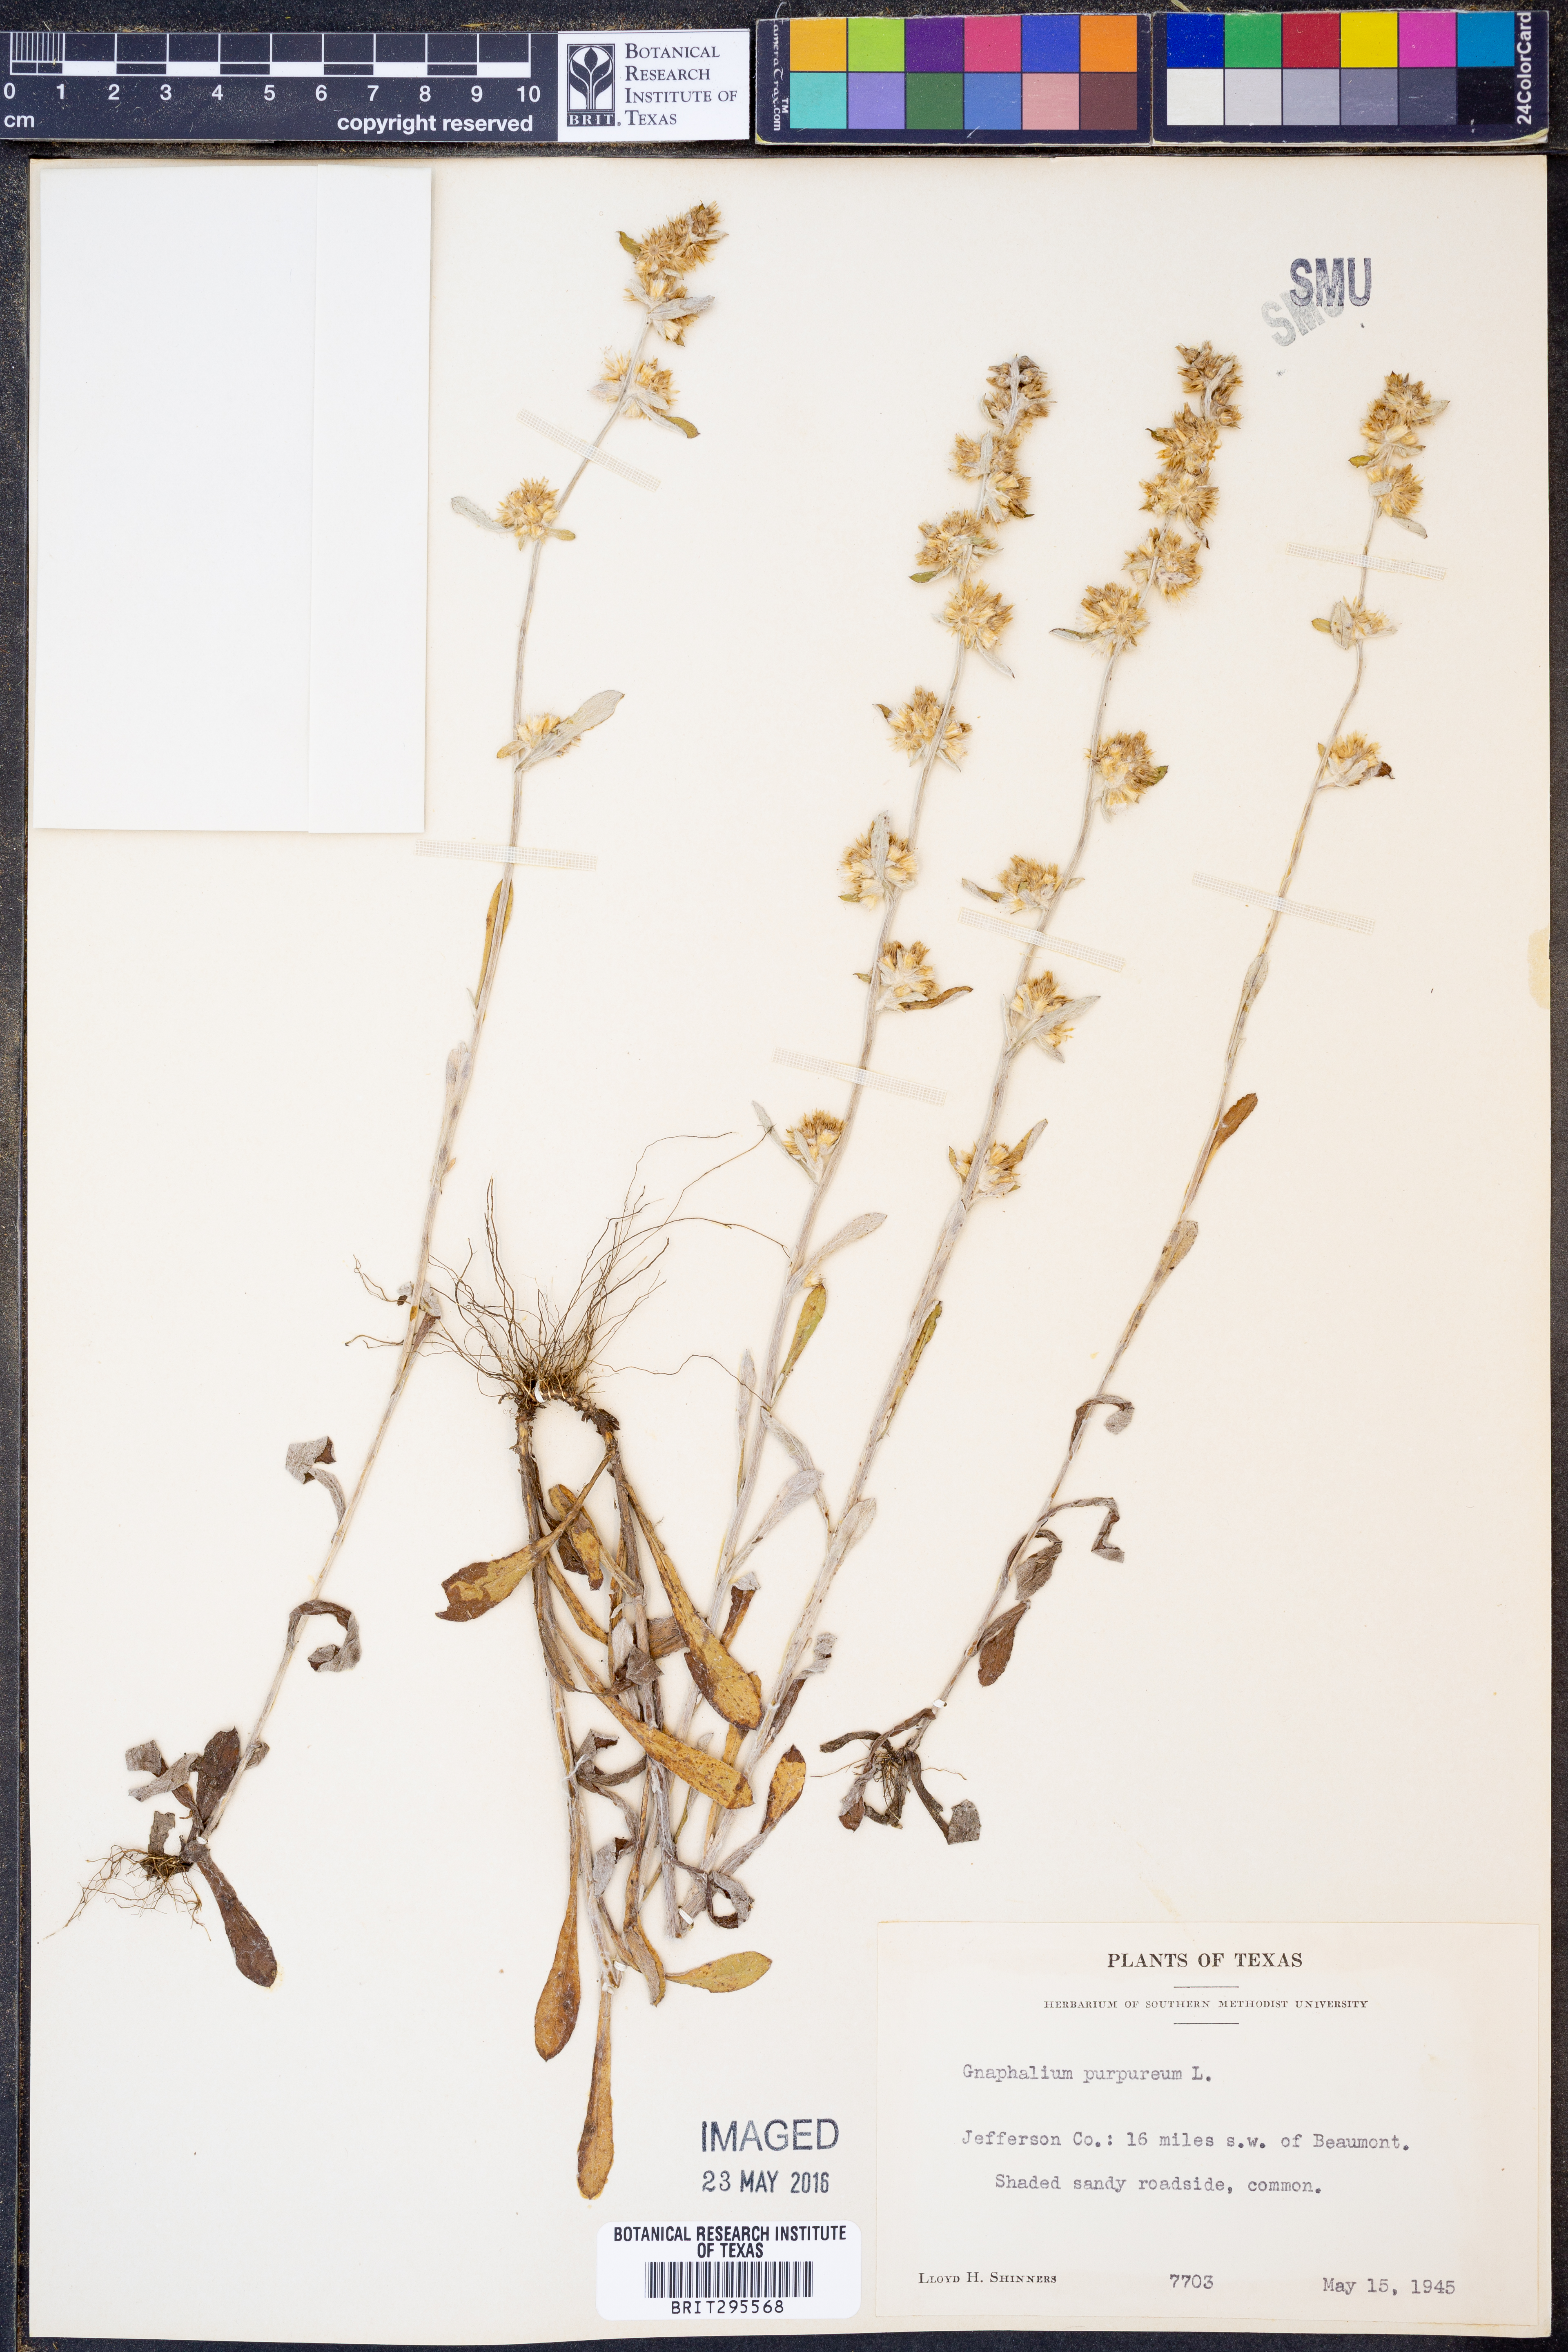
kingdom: Plantae
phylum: Tracheophyta
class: Magnoliopsida
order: Asterales
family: Asteraceae
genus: Gamochaeta
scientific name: Gamochaeta purpurea
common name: Purple cudweed
